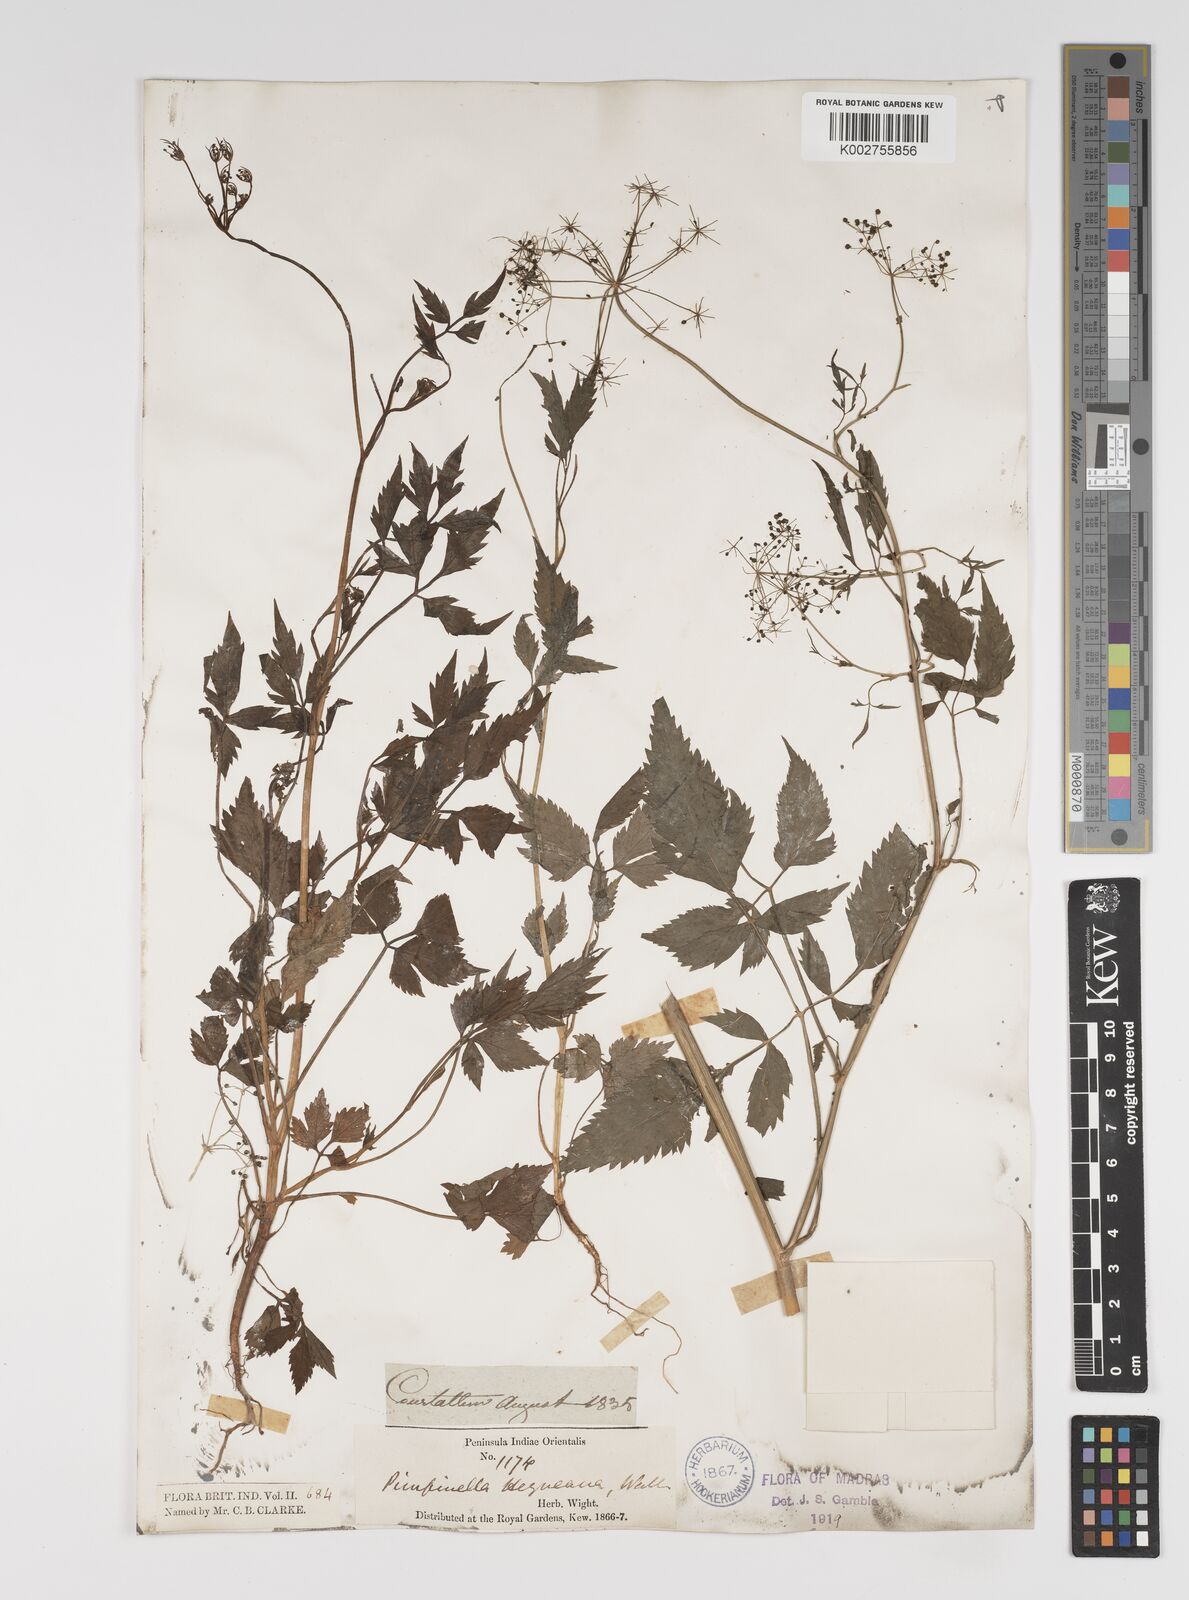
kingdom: Plantae
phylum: Tracheophyta
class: Magnoliopsida
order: Apiales
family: Apiaceae
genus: Pimpinella
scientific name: Pimpinella heyneana
